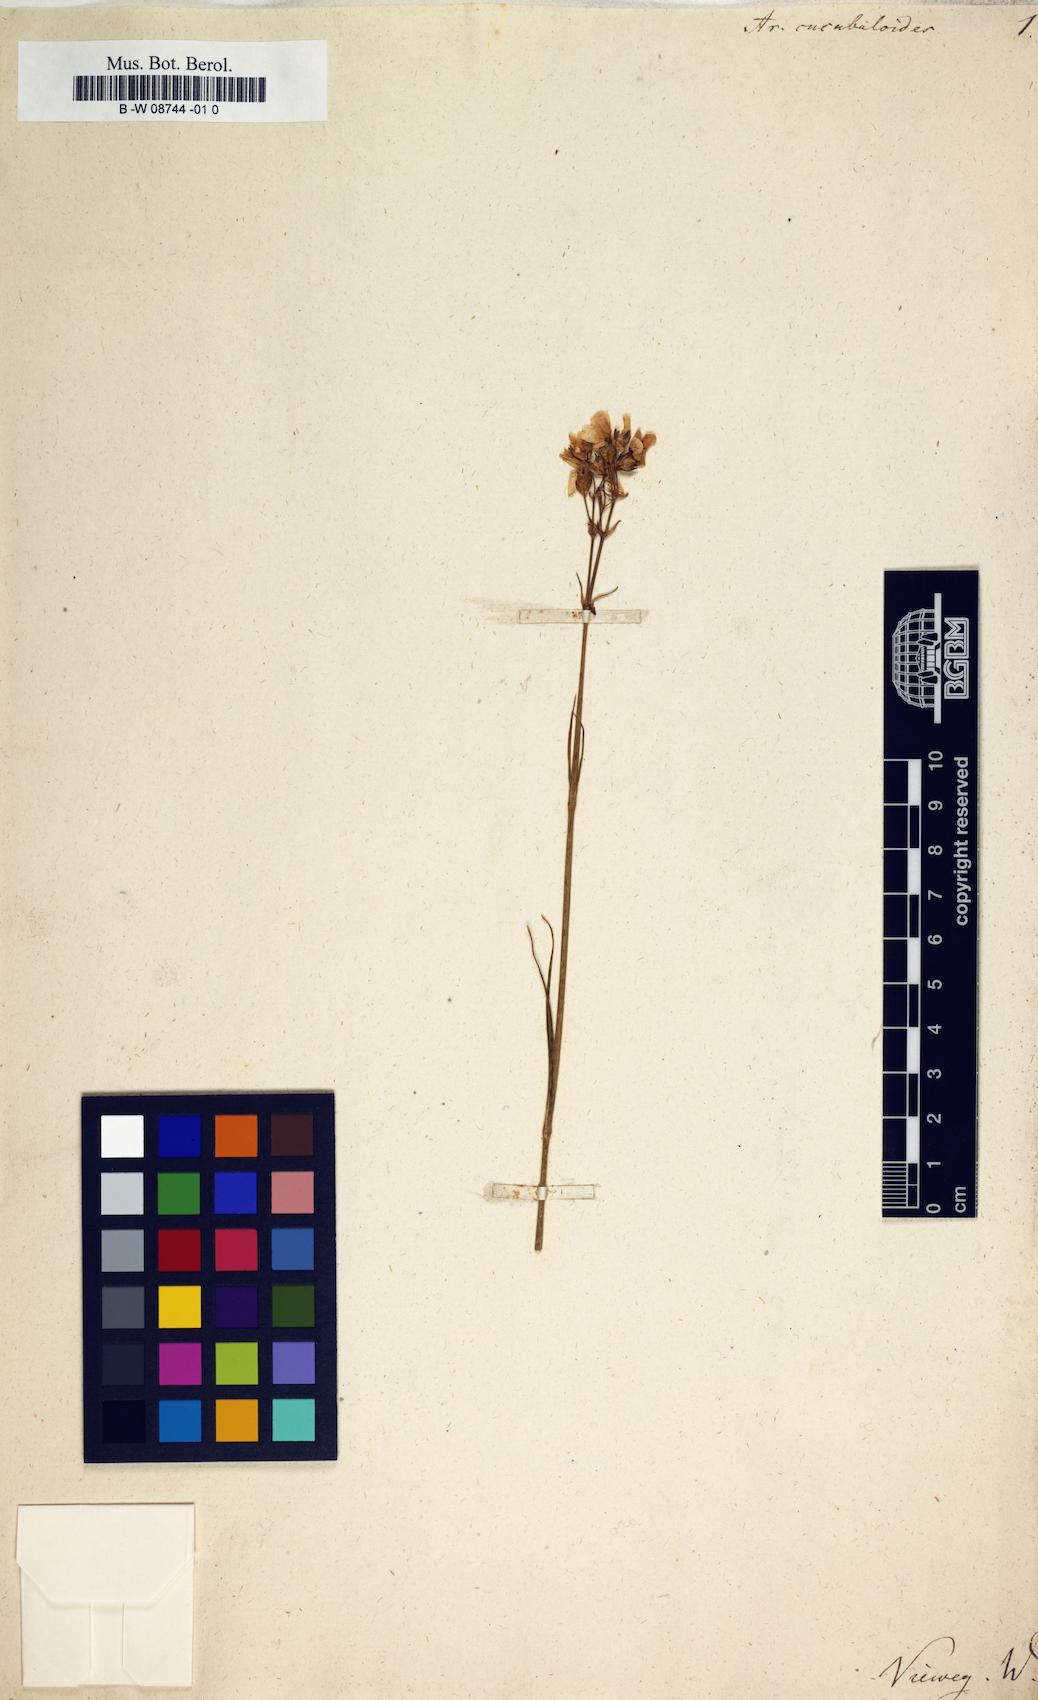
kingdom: Plantae
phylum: Tracheophyta
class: Magnoliopsida
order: Caryophyllales
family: Caryophyllaceae
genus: Eremogone
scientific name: Eremogone cucubaloides
